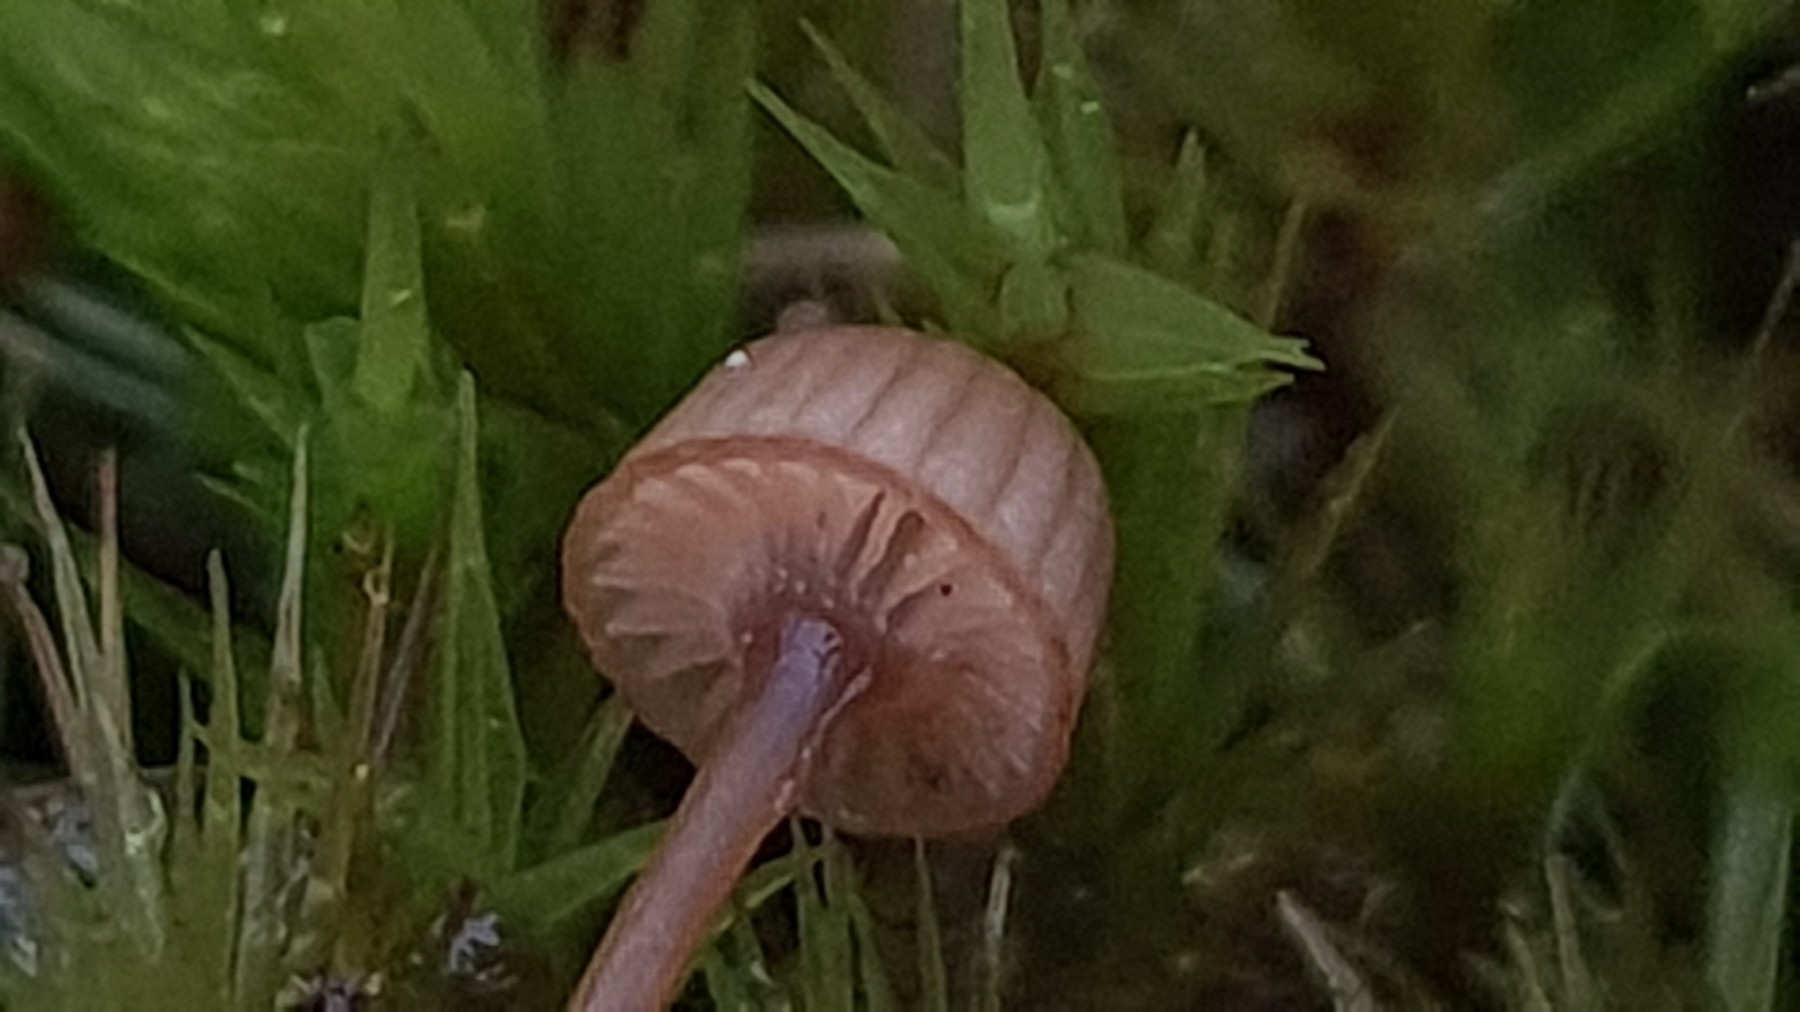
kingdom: Fungi
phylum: Basidiomycota
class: Agaricomycetes
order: Agaricales
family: Mycenaceae
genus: Mycena
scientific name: Mycena picta
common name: kantet huesvamp
